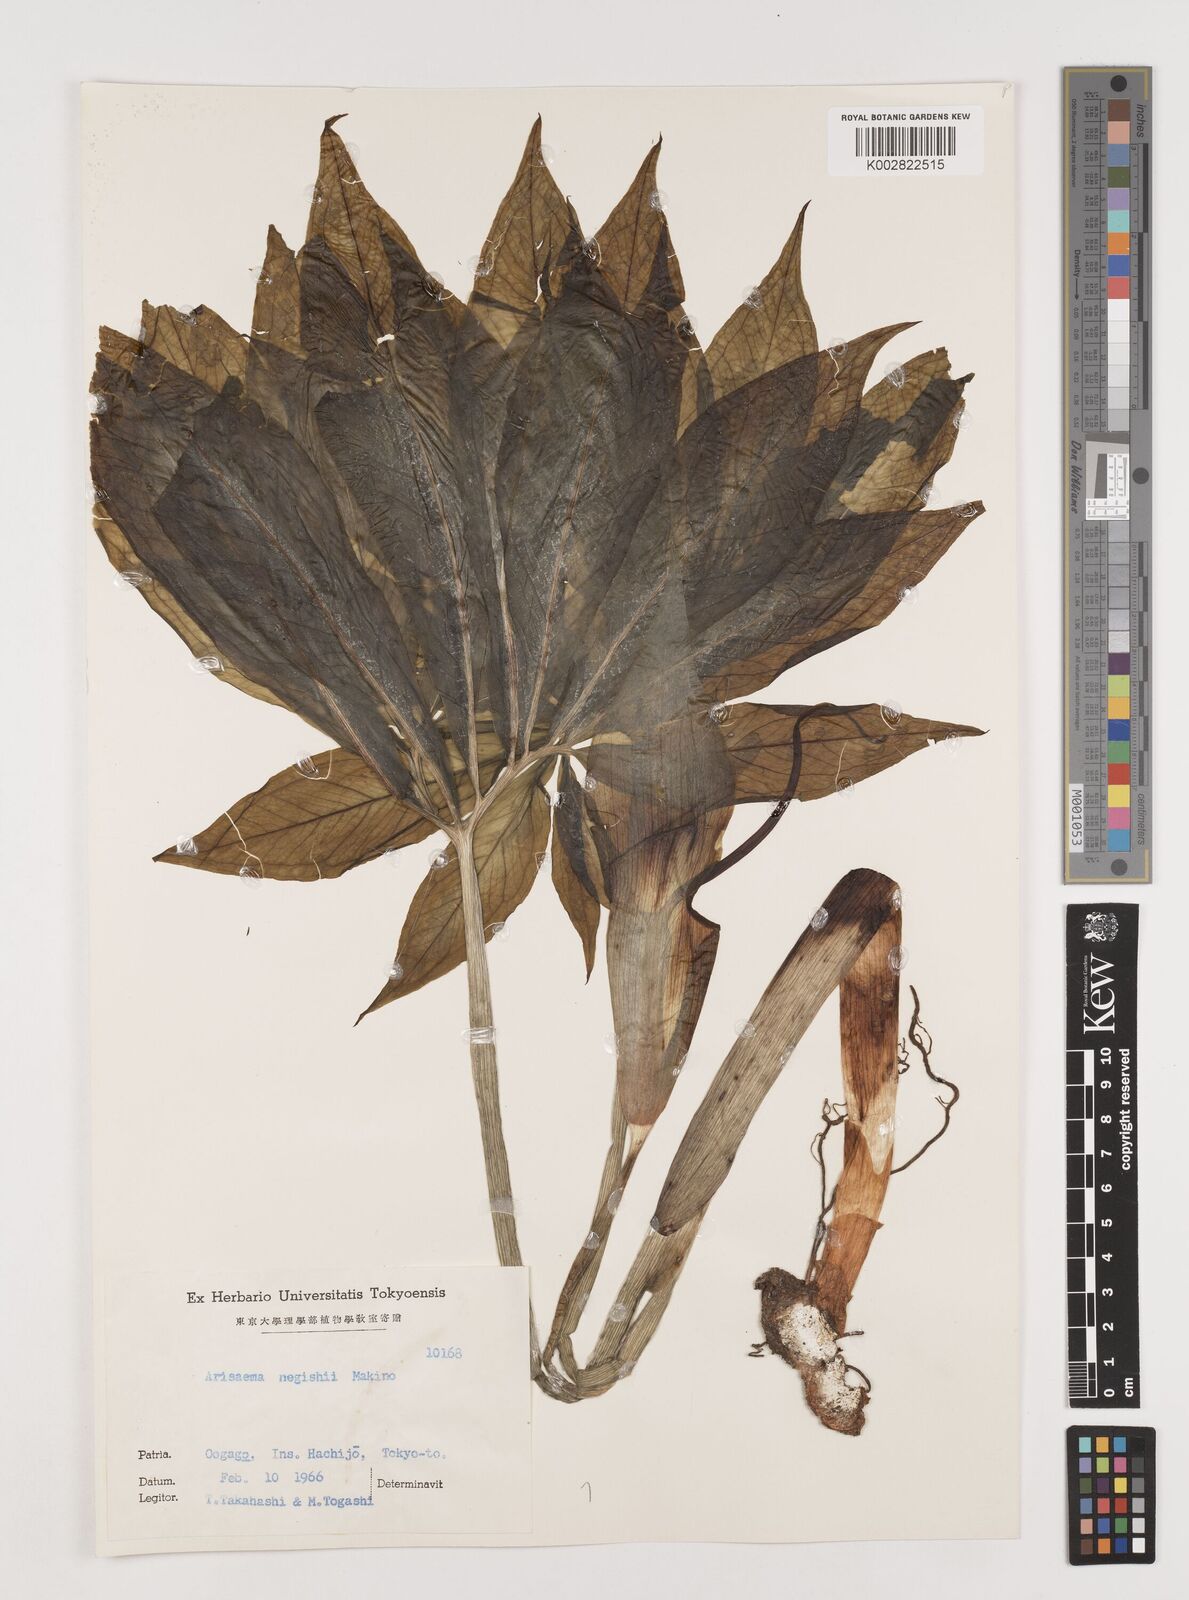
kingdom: Plantae
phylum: Tracheophyta
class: Liliopsida
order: Alismatales
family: Araceae
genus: Arisaema
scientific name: Arisaema negishii
